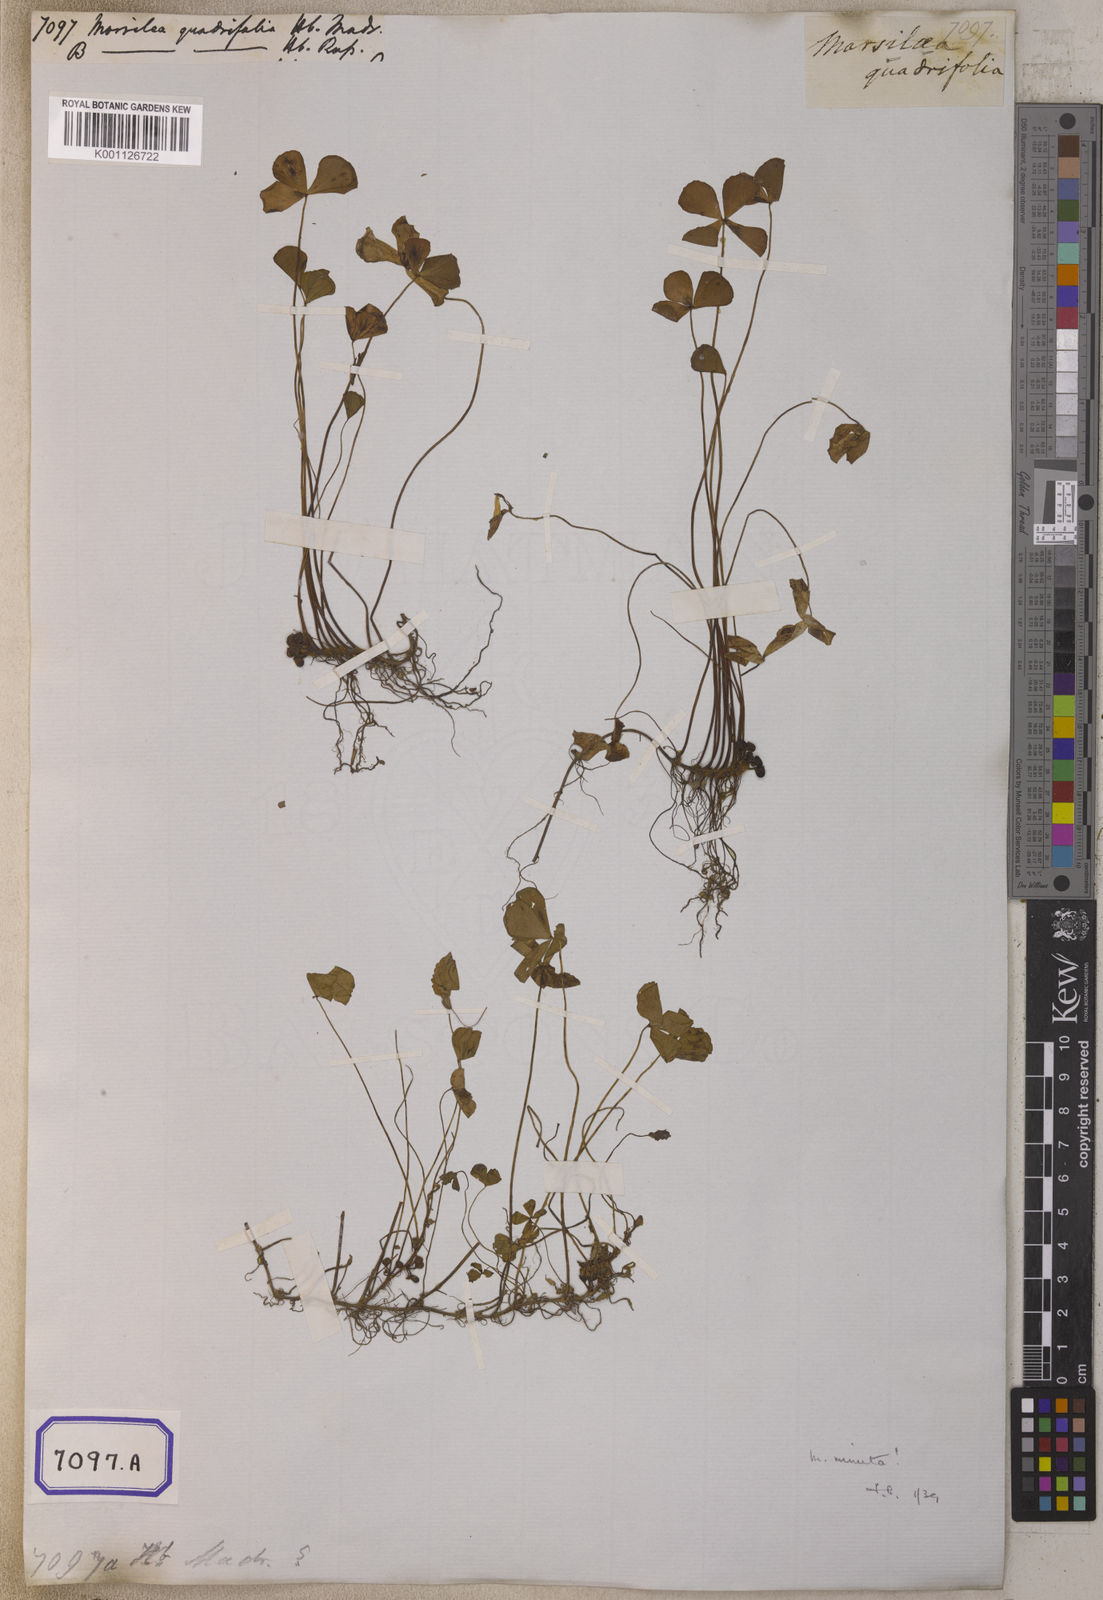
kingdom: Plantae
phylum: Tracheophyta
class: Polypodiopsida
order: Salviniales
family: Marsileaceae
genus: Marsilea
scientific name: Marsilea quadrifolia
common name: Water shamrock
